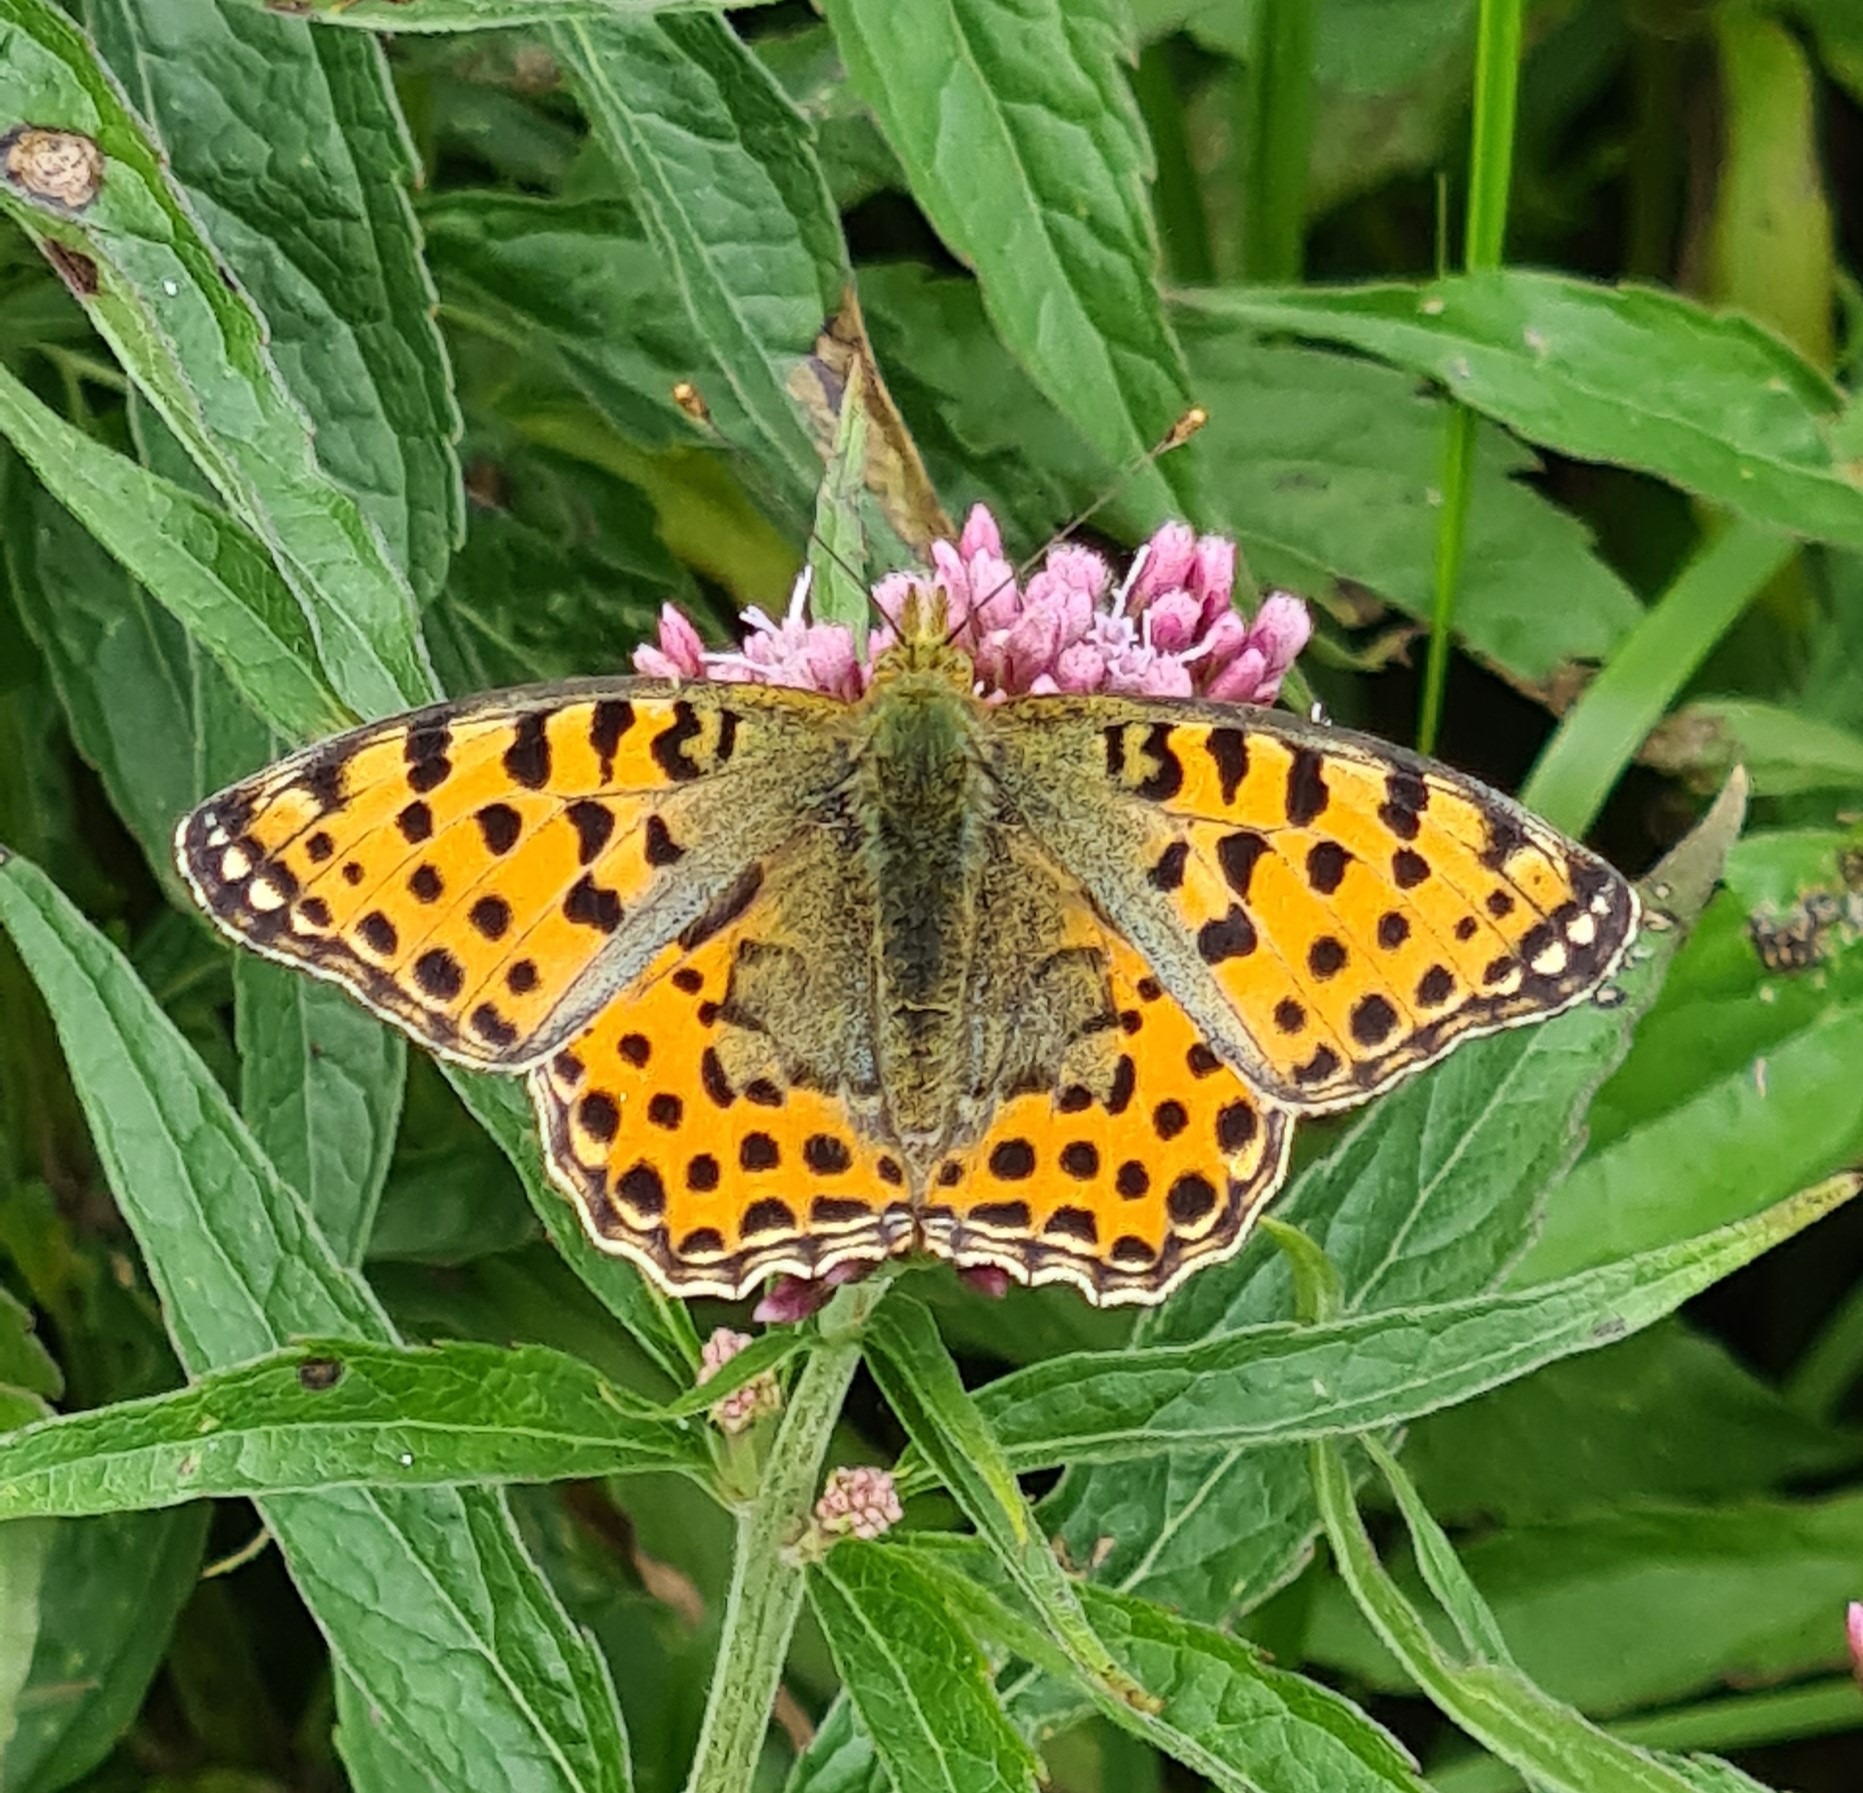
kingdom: Animalia
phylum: Arthropoda
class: Insecta
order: Lepidoptera
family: Nymphalidae
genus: Issoria
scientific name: Issoria lathonia
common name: Storplettet perlemorsommerfugl
